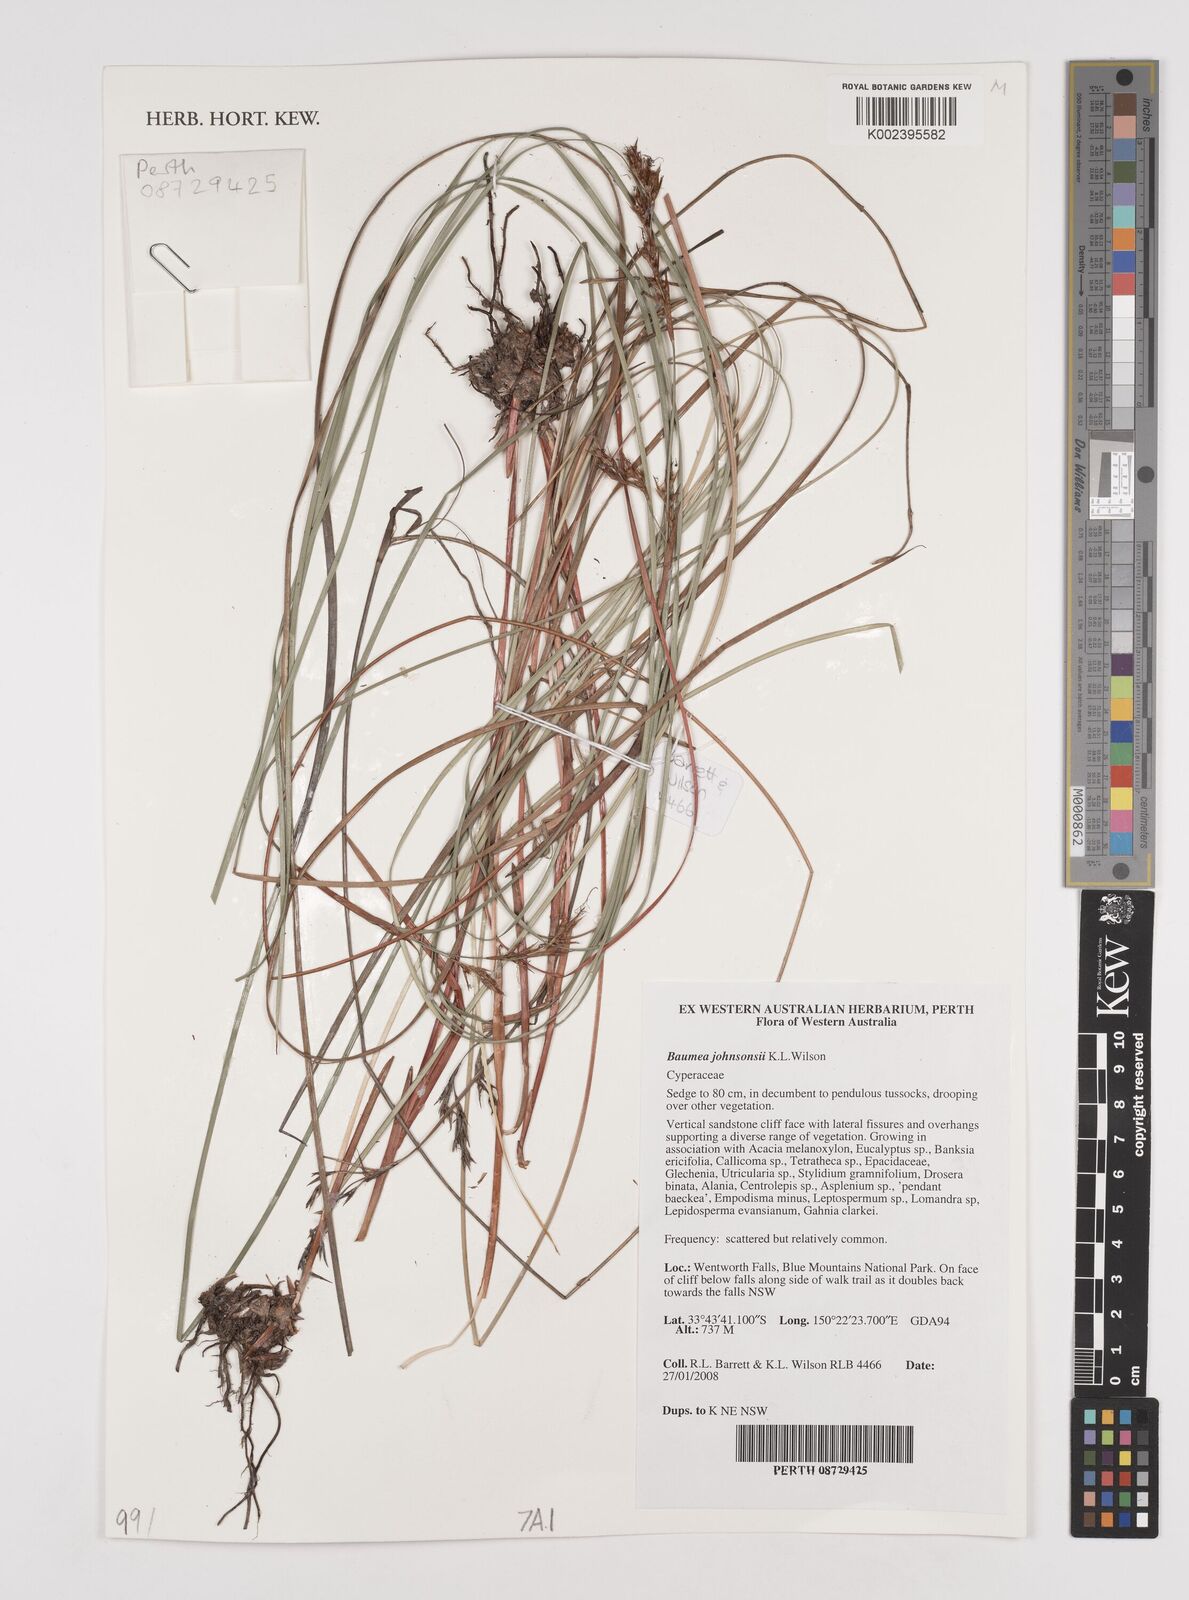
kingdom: Plantae
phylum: Tracheophyta
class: Liliopsida
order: Poales
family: Cyperaceae
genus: Machaerina
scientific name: Machaerina johnsonii
